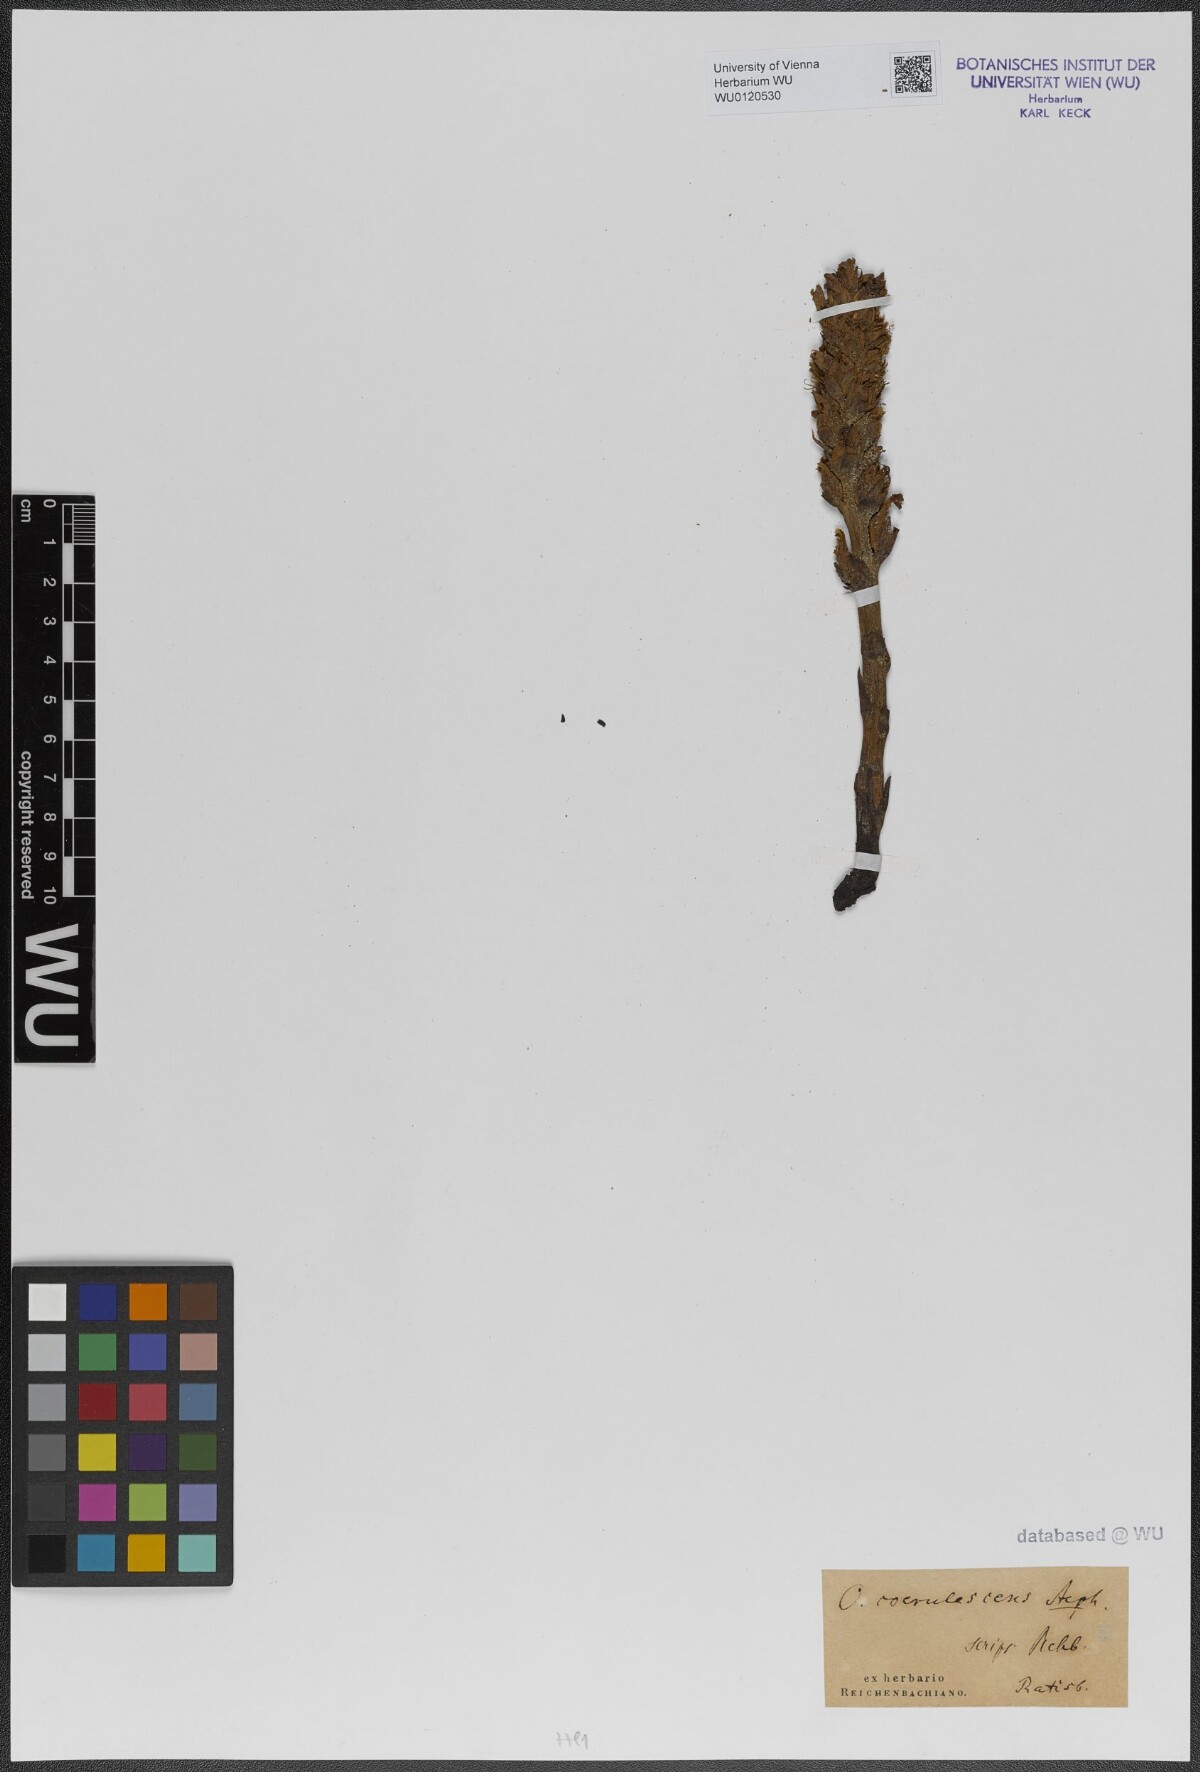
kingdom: Plantae
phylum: Tracheophyta
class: Magnoliopsida
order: Lamiales
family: Orobanchaceae
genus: Orobanche
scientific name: Orobanche coerulescens
